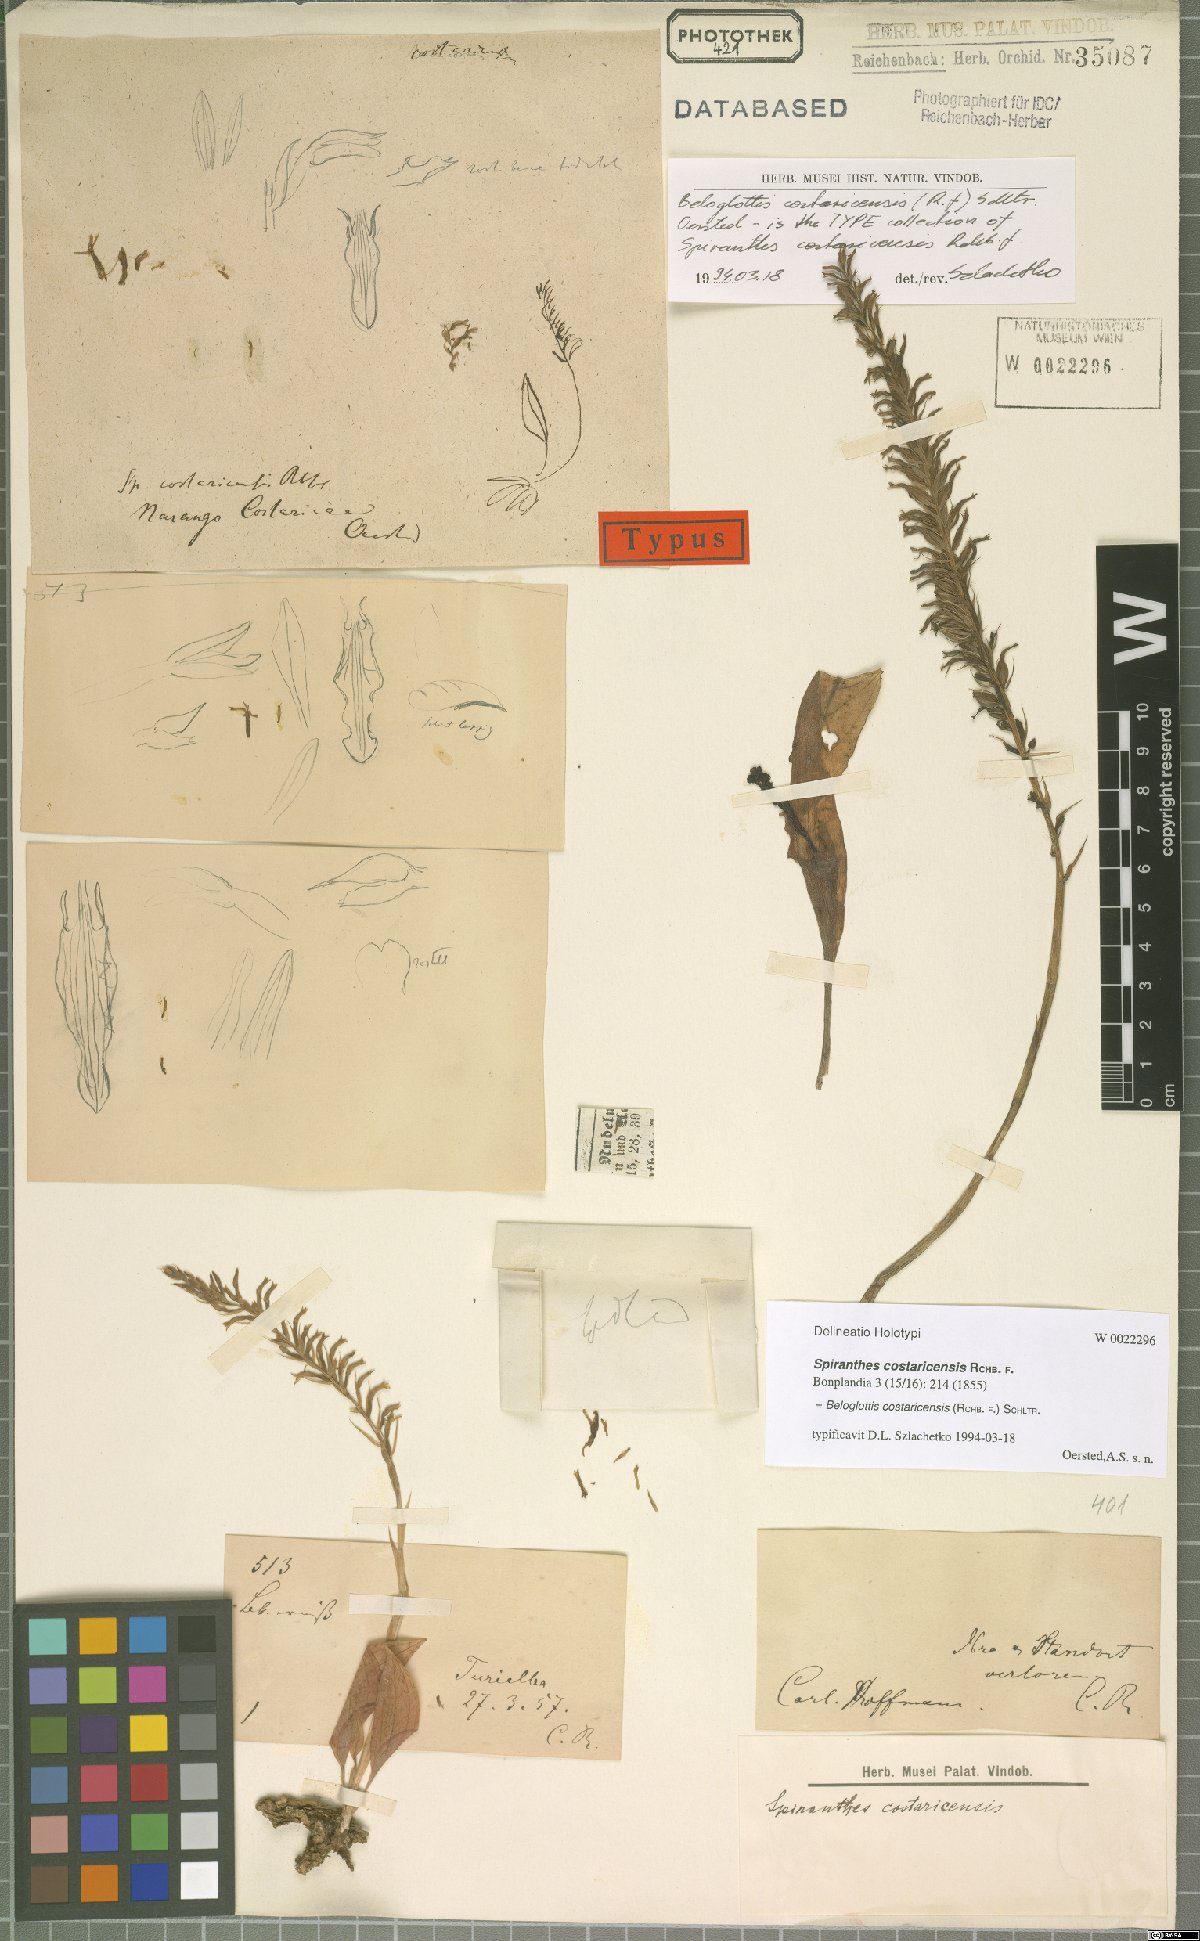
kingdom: Plantae
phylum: Tracheophyta
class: Liliopsida
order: Asparagales
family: Orchidaceae
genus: Beloglottis
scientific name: Beloglottis costaricensis
